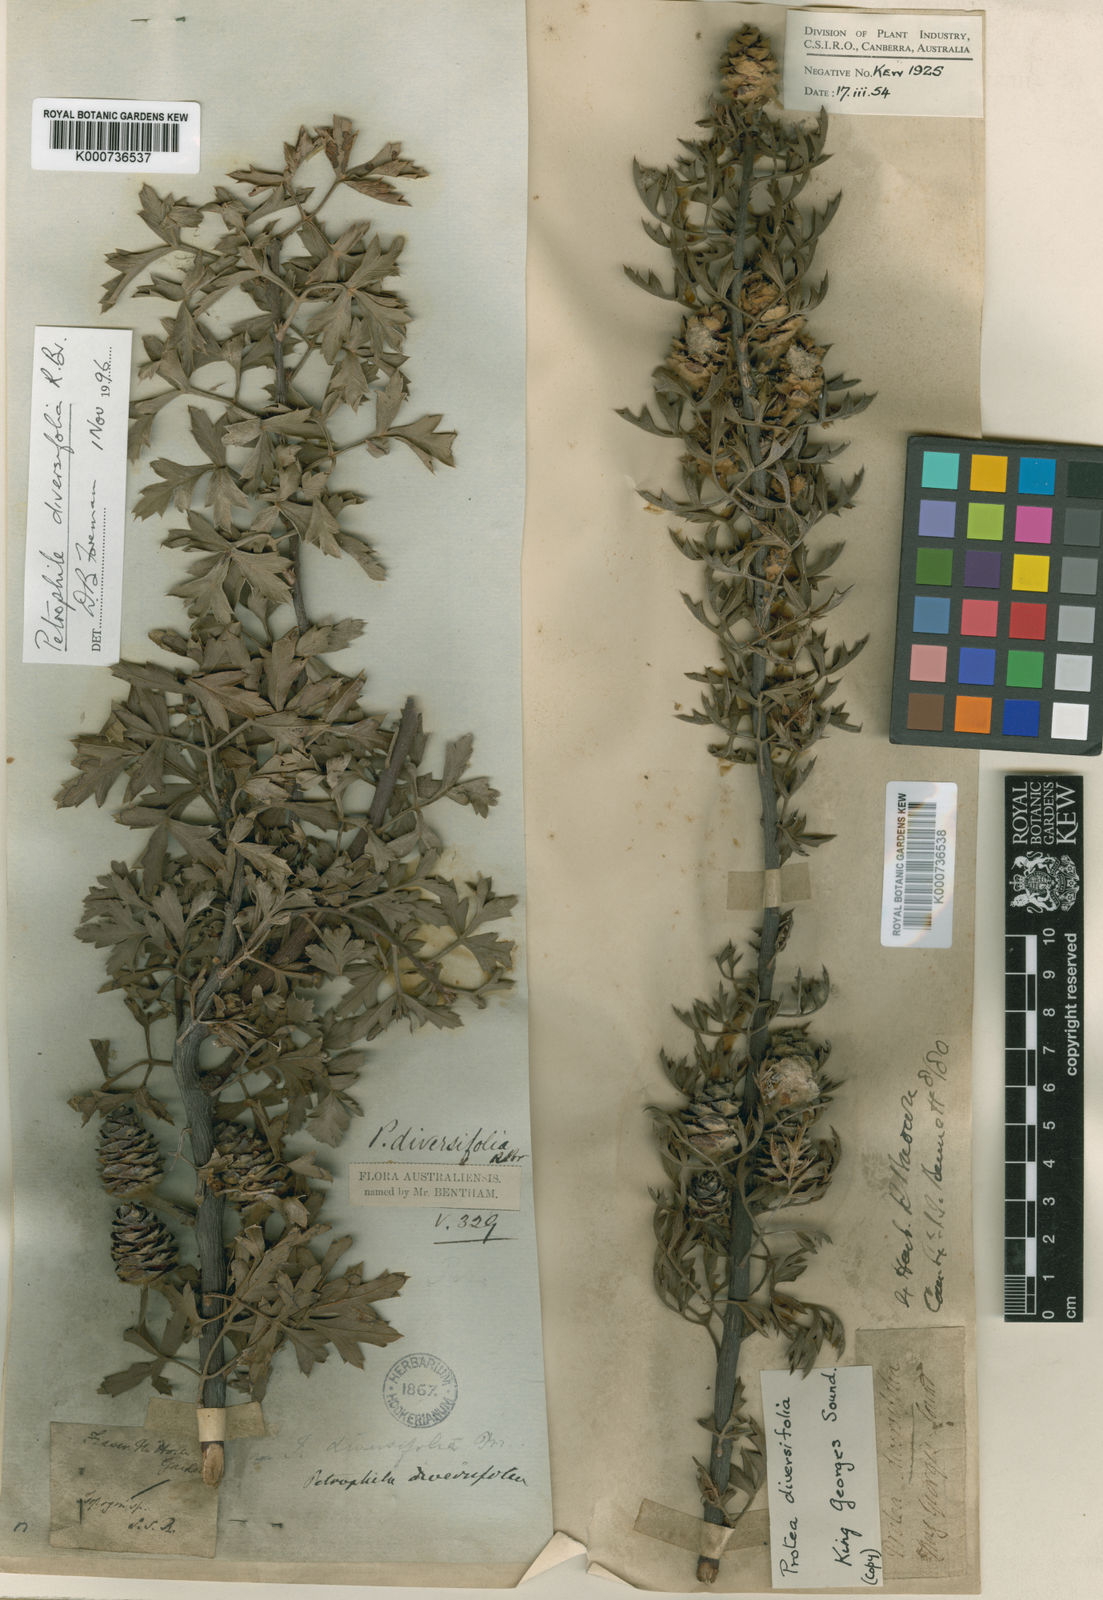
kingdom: Plantae
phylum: Tracheophyta
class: Magnoliopsida
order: Proteales
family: Proteaceae
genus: Petrophile
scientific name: Petrophile diversifolia
